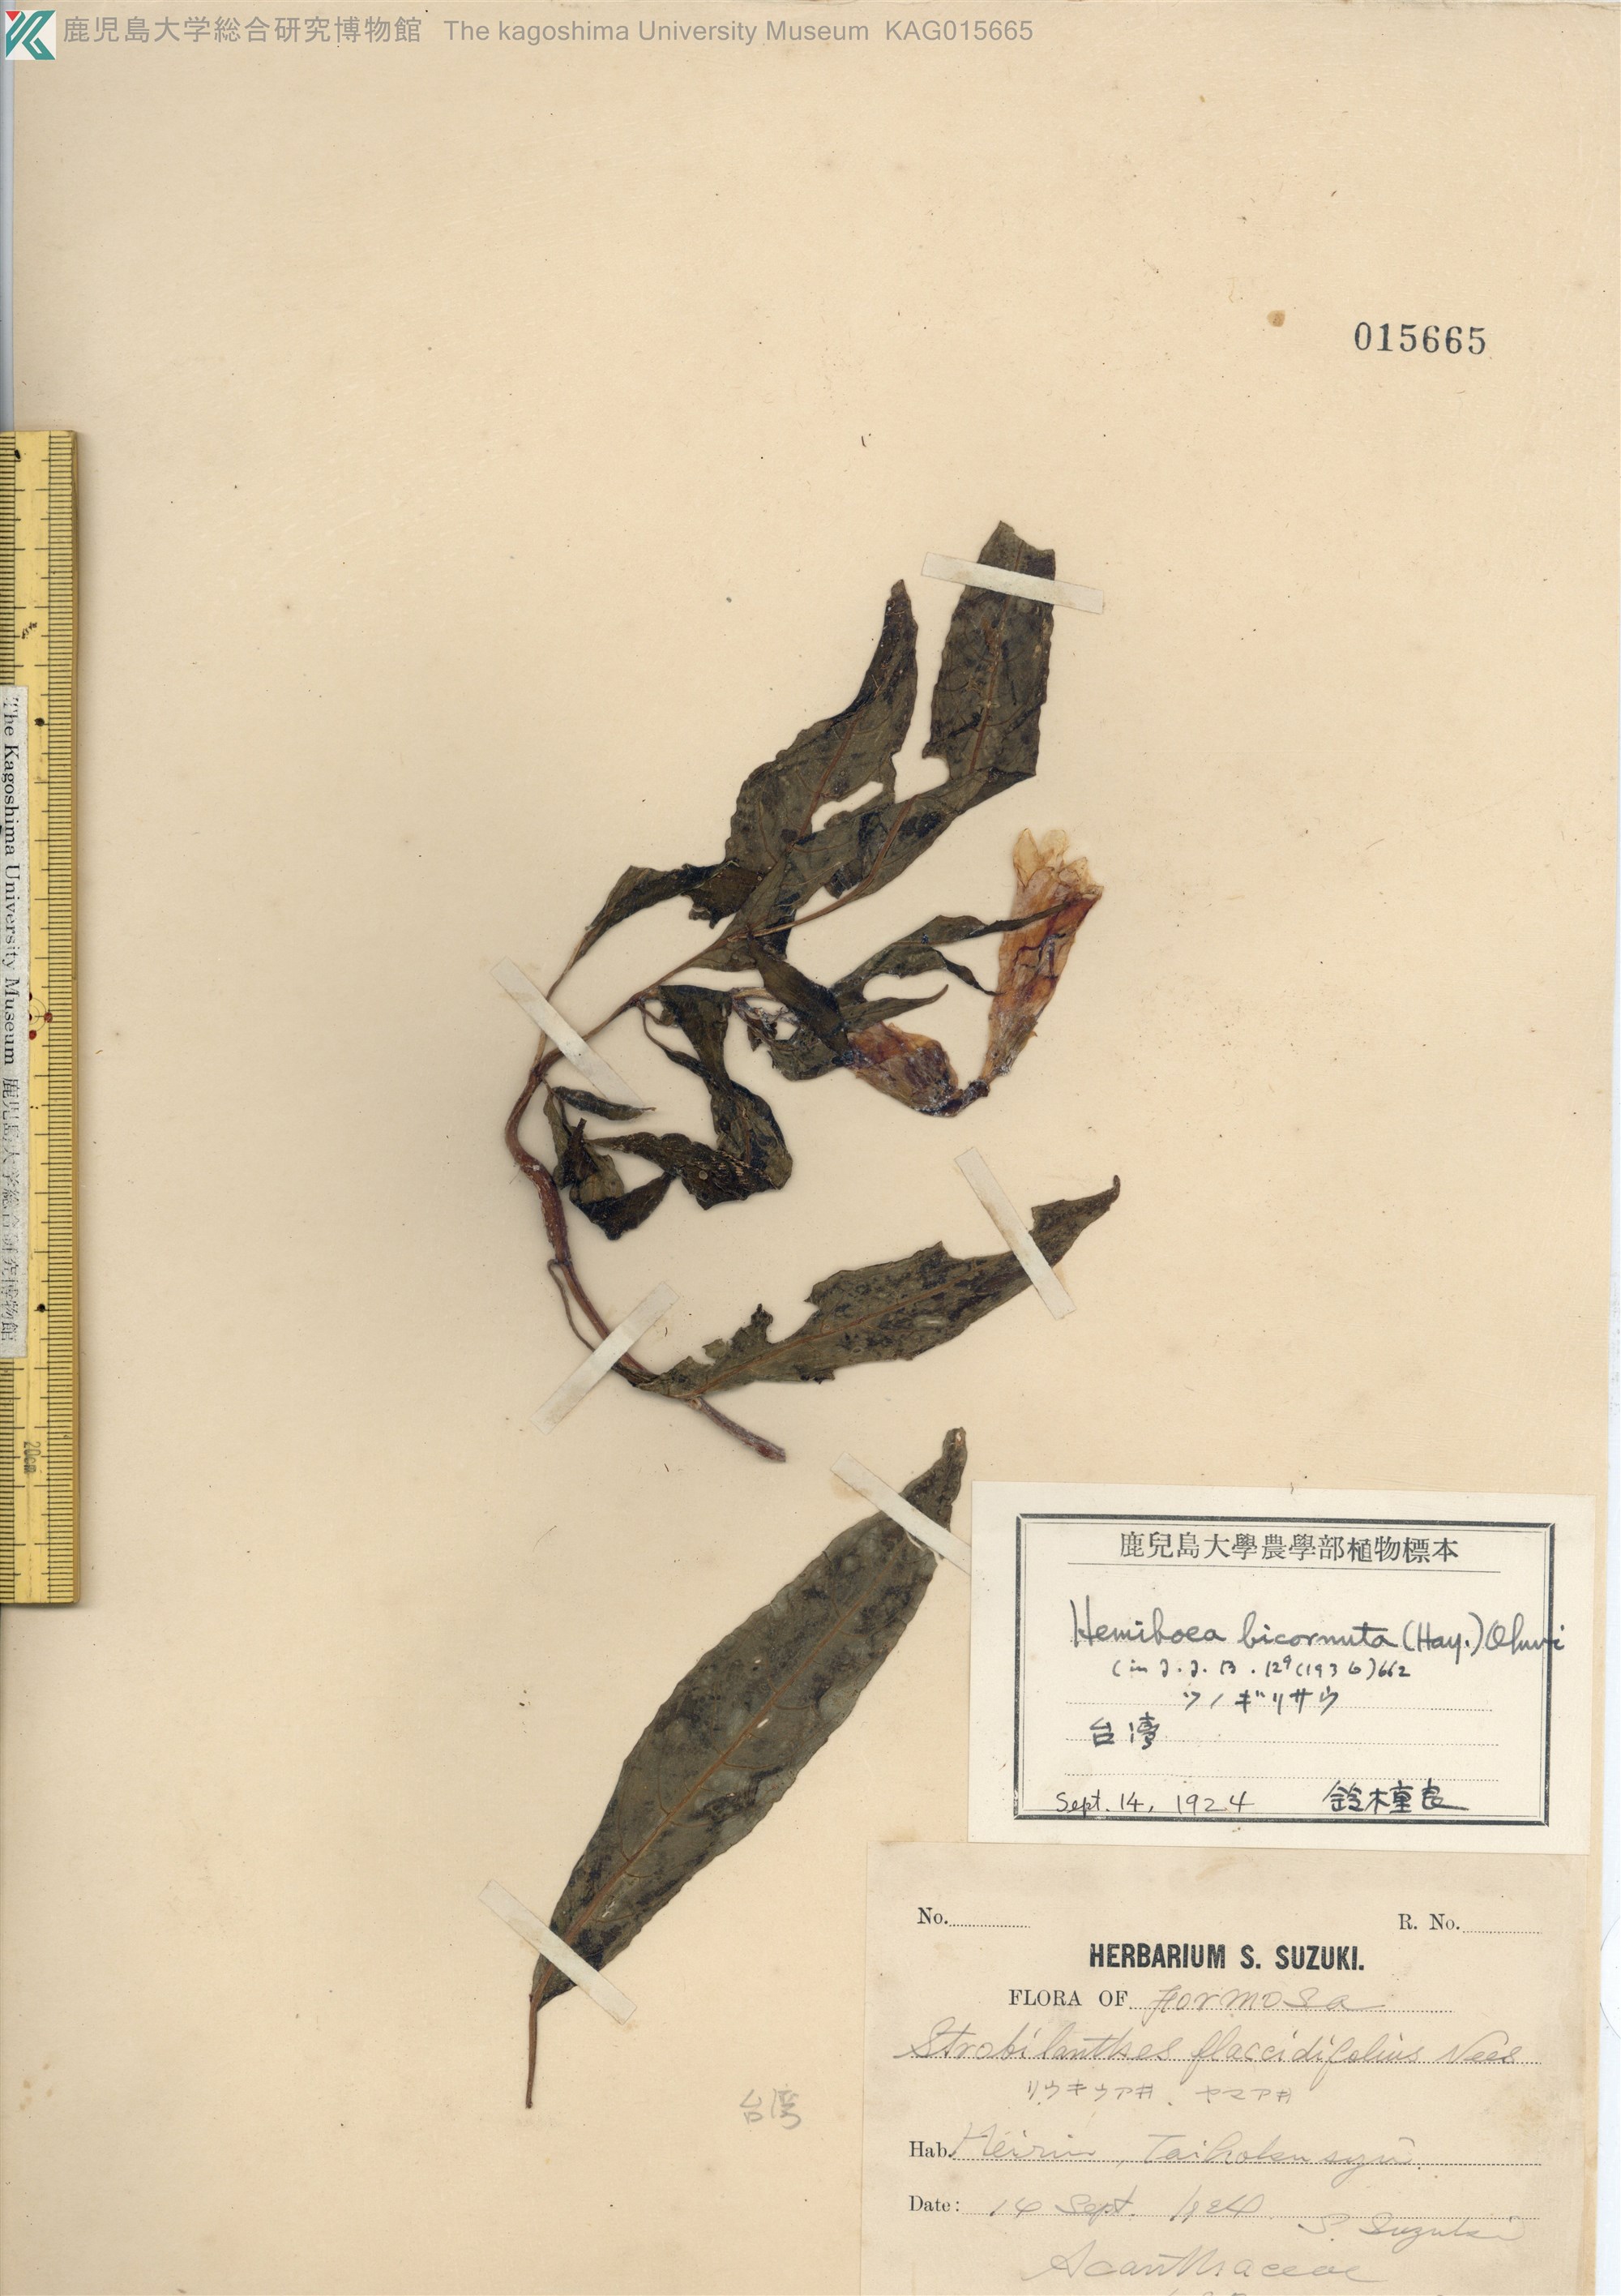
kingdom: Plantae
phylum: Tracheophyta
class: Magnoliopsida
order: Lamiales
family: Gesneriaceae
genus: Hemiboea
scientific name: Hemiboea bicornuta
